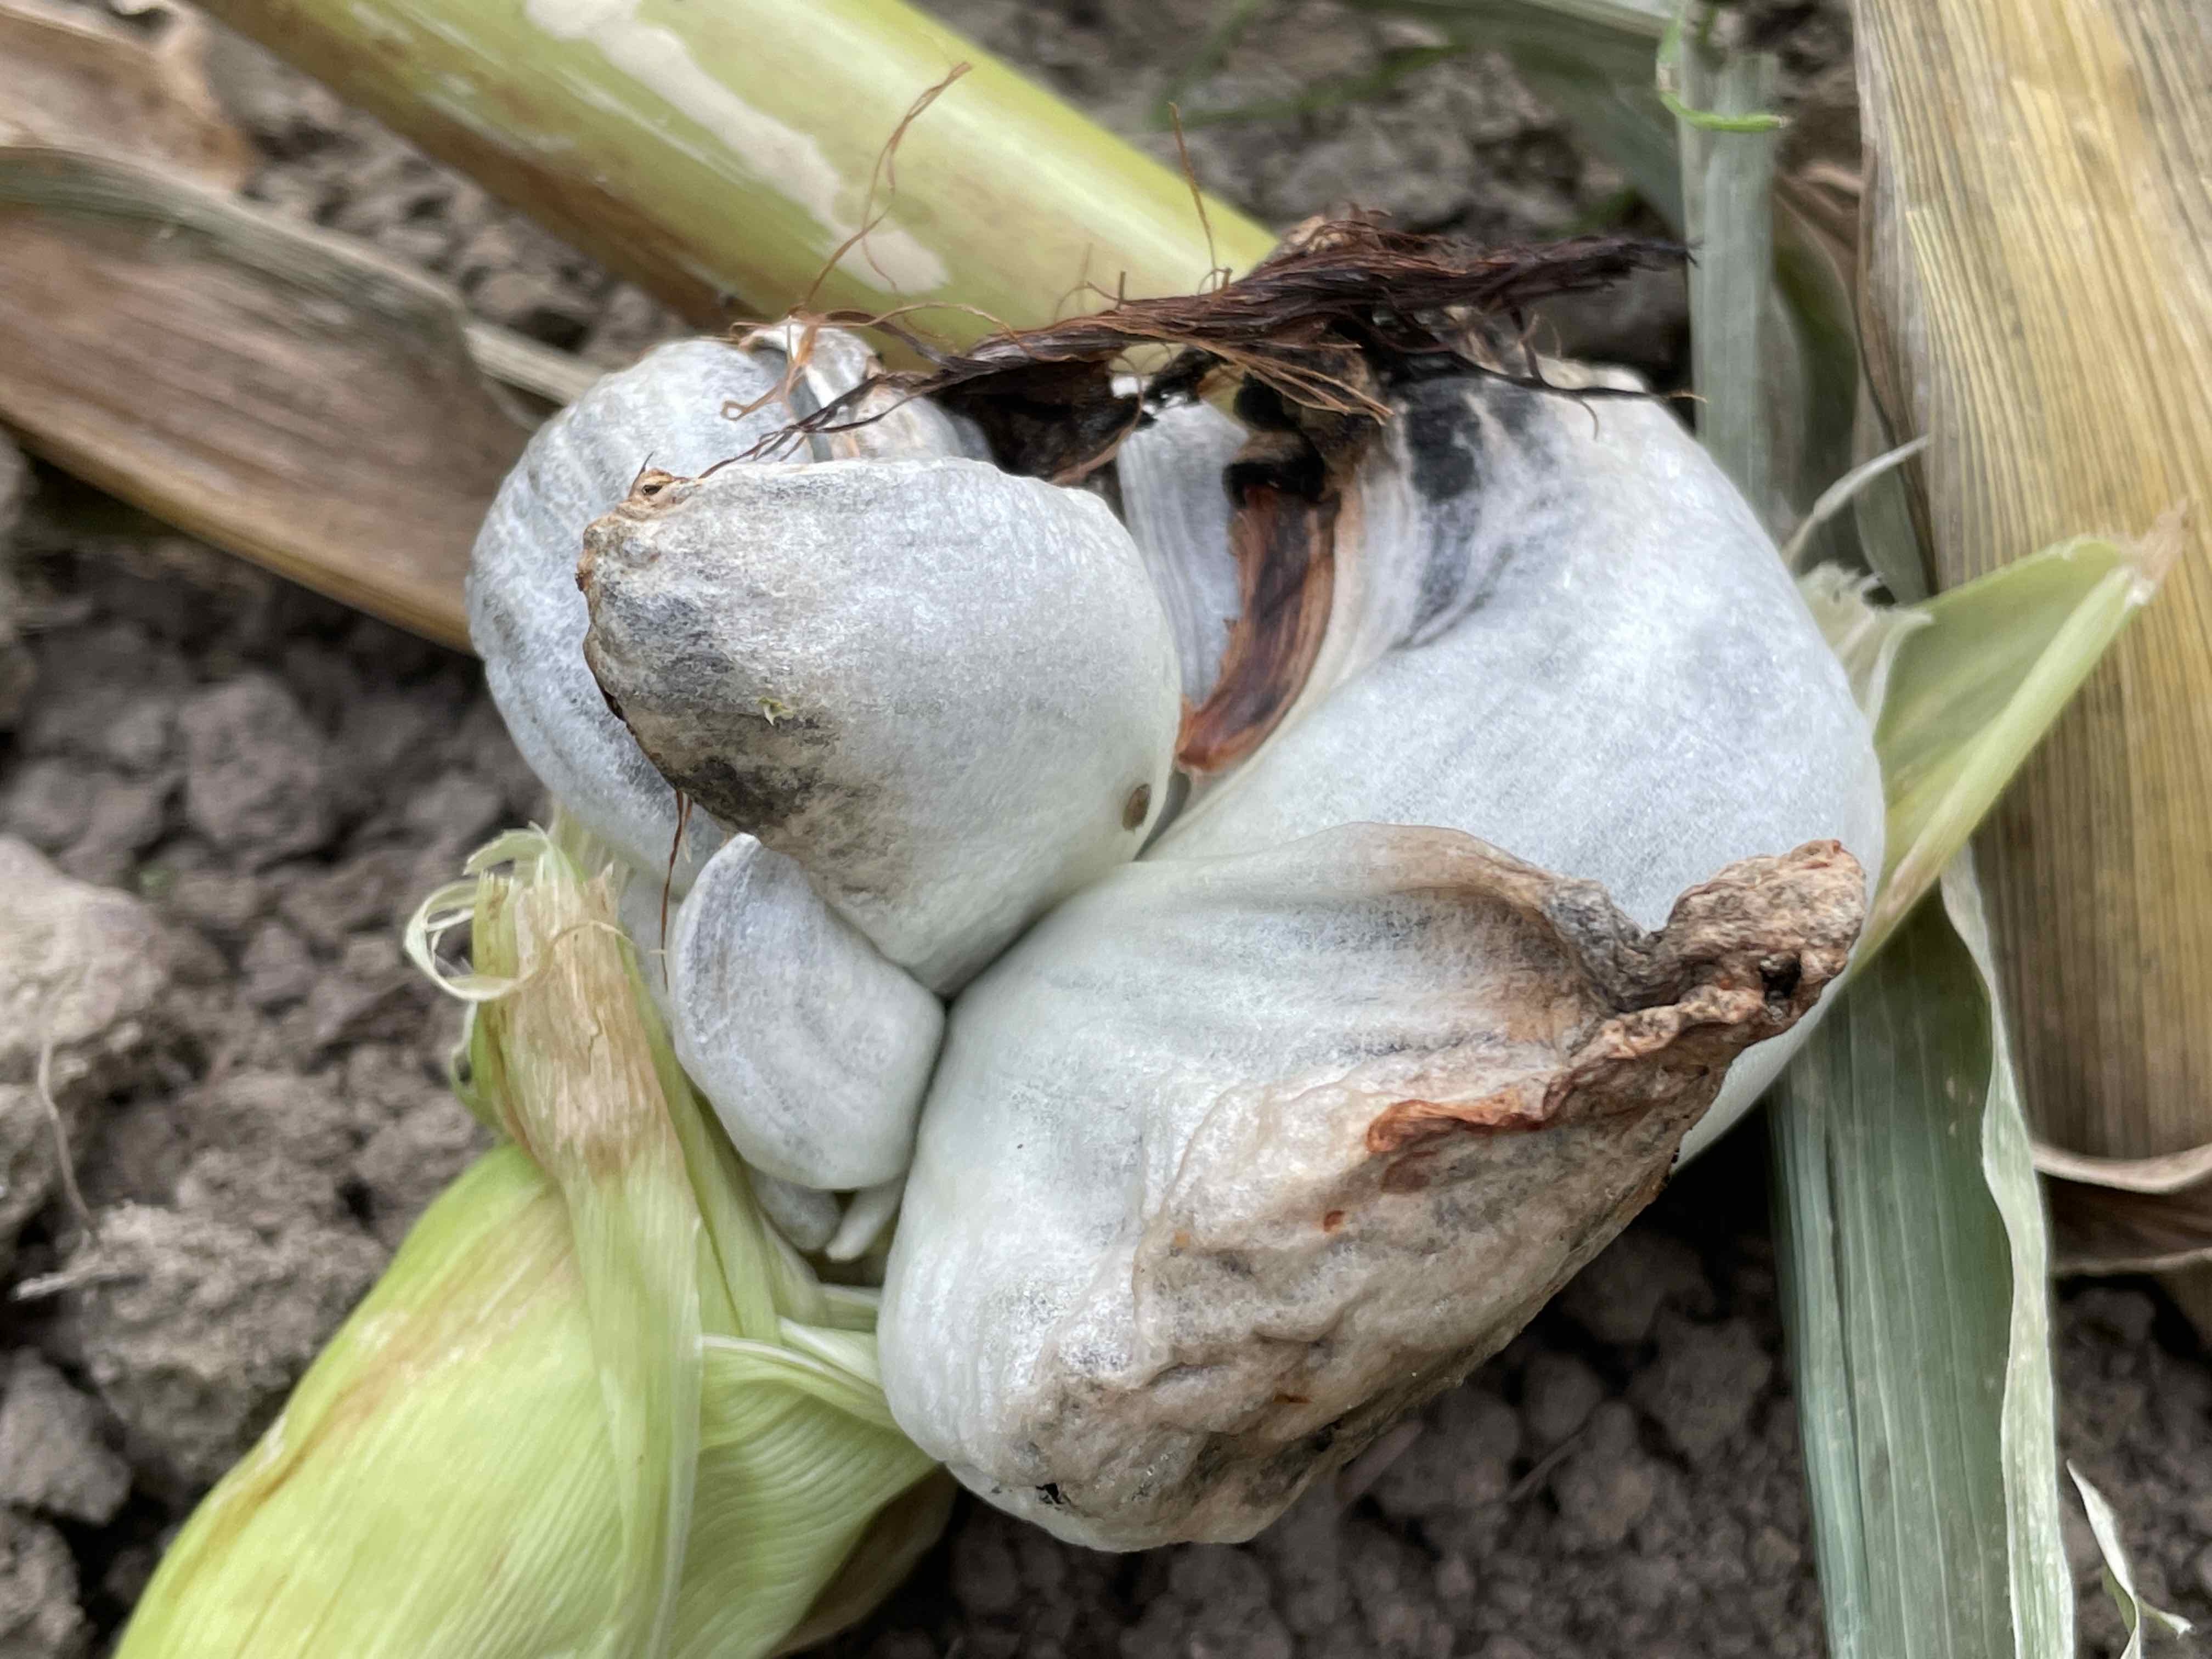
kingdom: Fungi
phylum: Basidiomycota
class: Ustilaginomycetes
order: Ustilaginales
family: Ustilaginaceae
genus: Mycosarcoma
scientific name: Mycosarcoma maydis
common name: majs-brand
